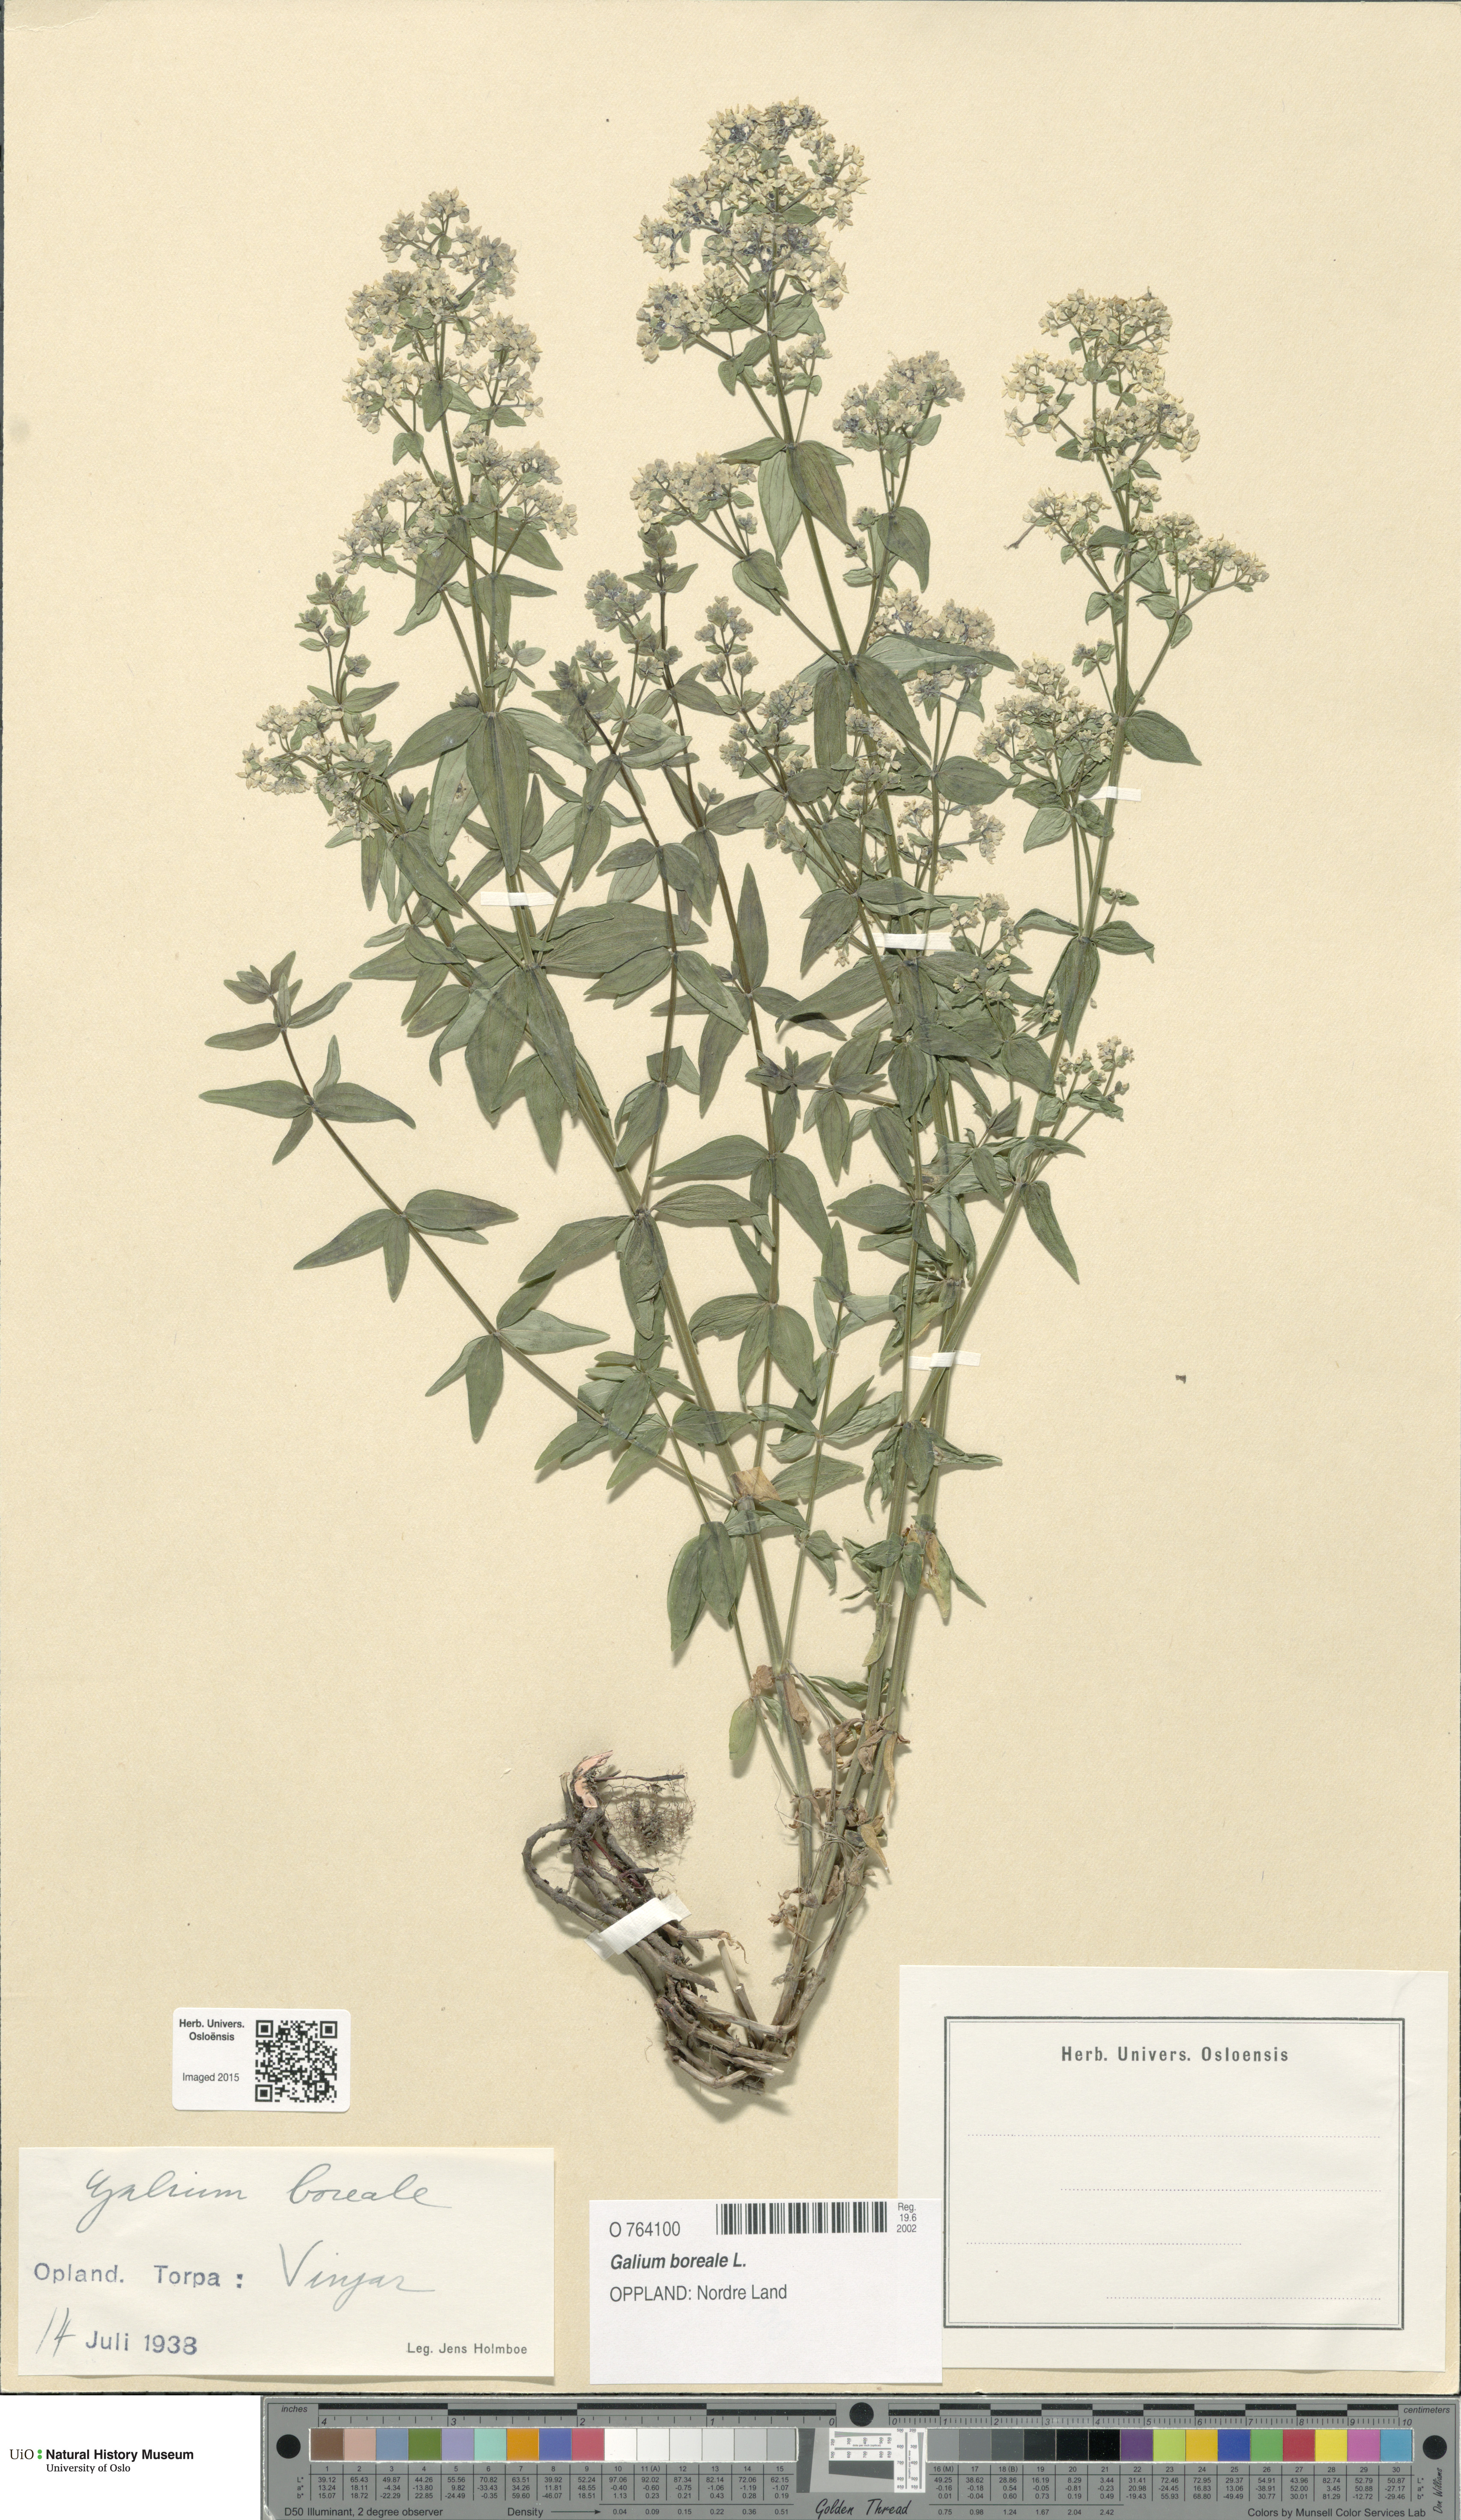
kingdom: Plantae
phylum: Tracheophyta
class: Magnoliopsida
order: Gentianales
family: Rubiaceae
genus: Galium
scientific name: Galium boreale
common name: Northern bedstraw
